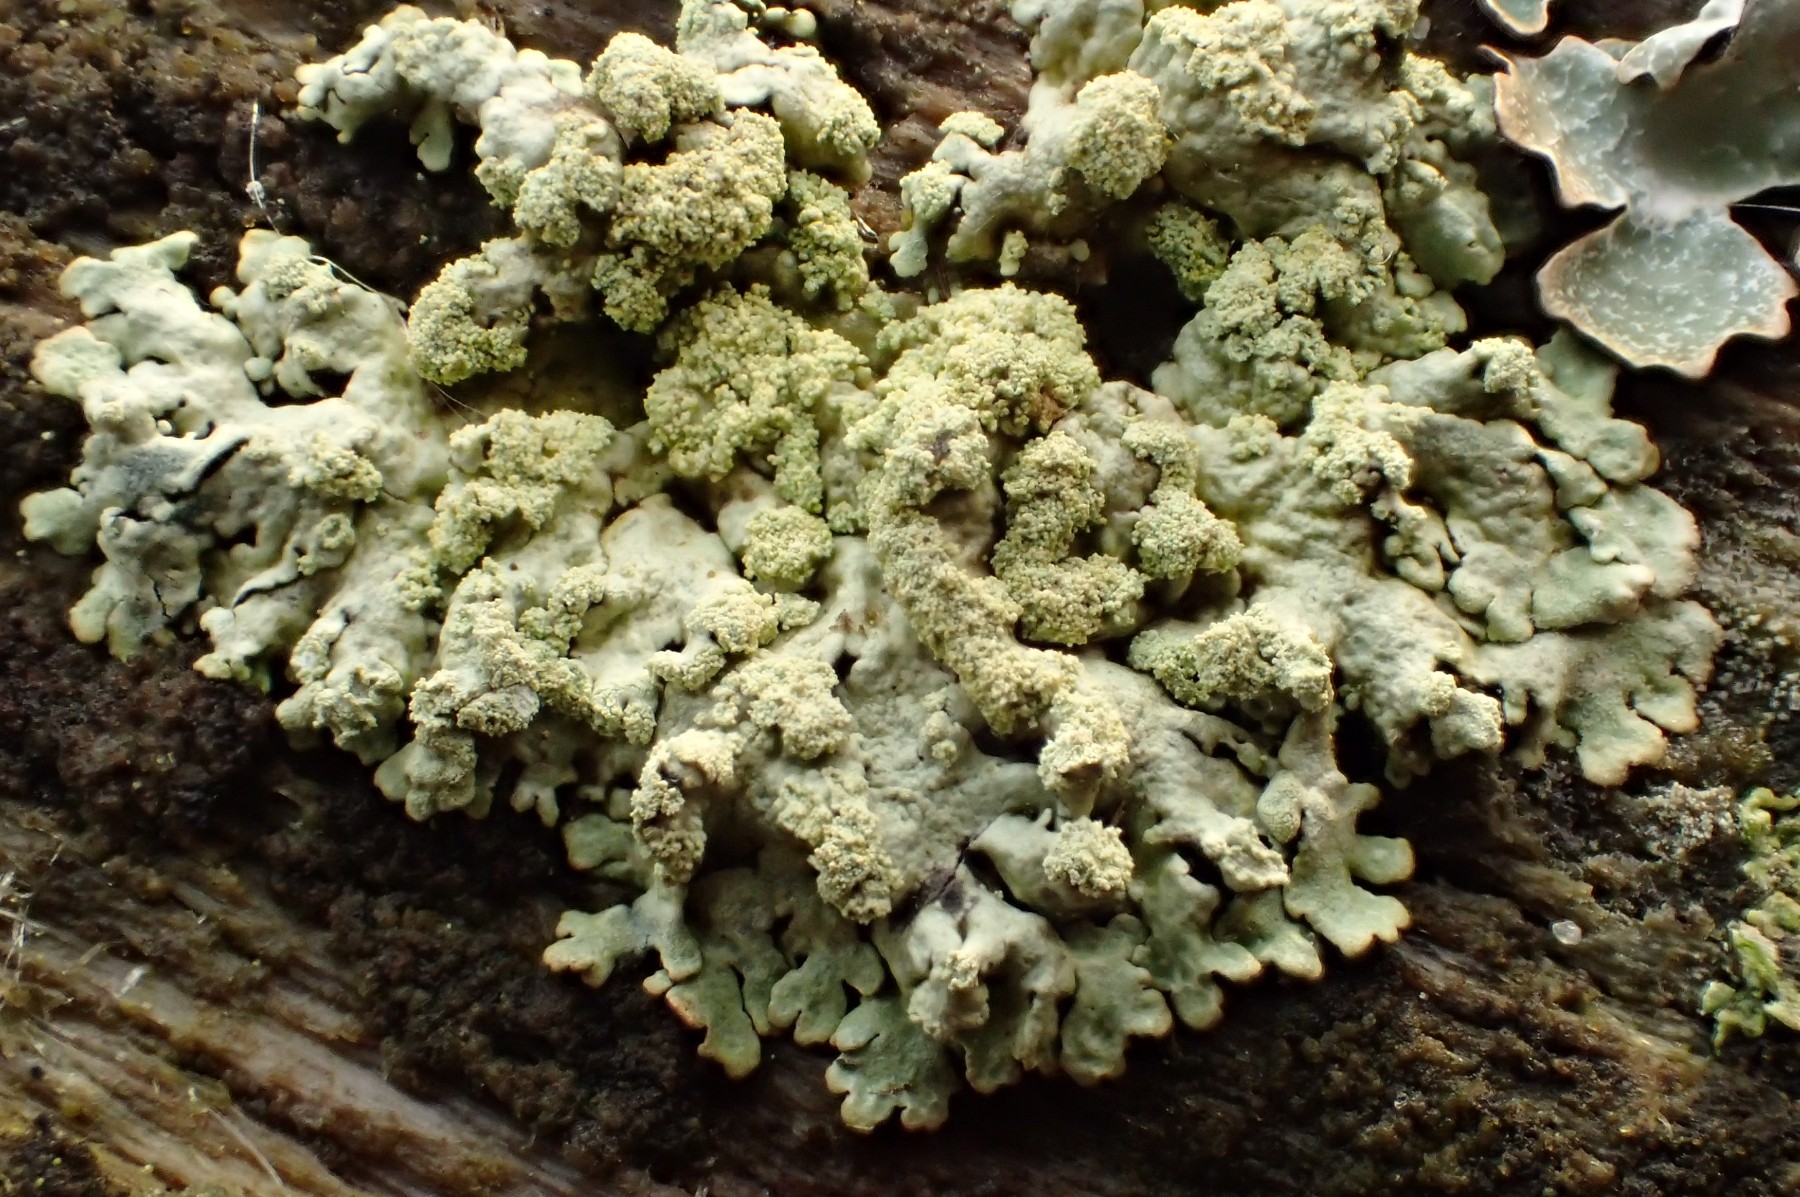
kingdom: Fungi
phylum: Ascomycota
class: Lecanoromycetes
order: Lecanorales
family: Parmeliaceae
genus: Parmeliopsis
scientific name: Parmeliopsis ambigua
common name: gul stolpelav
